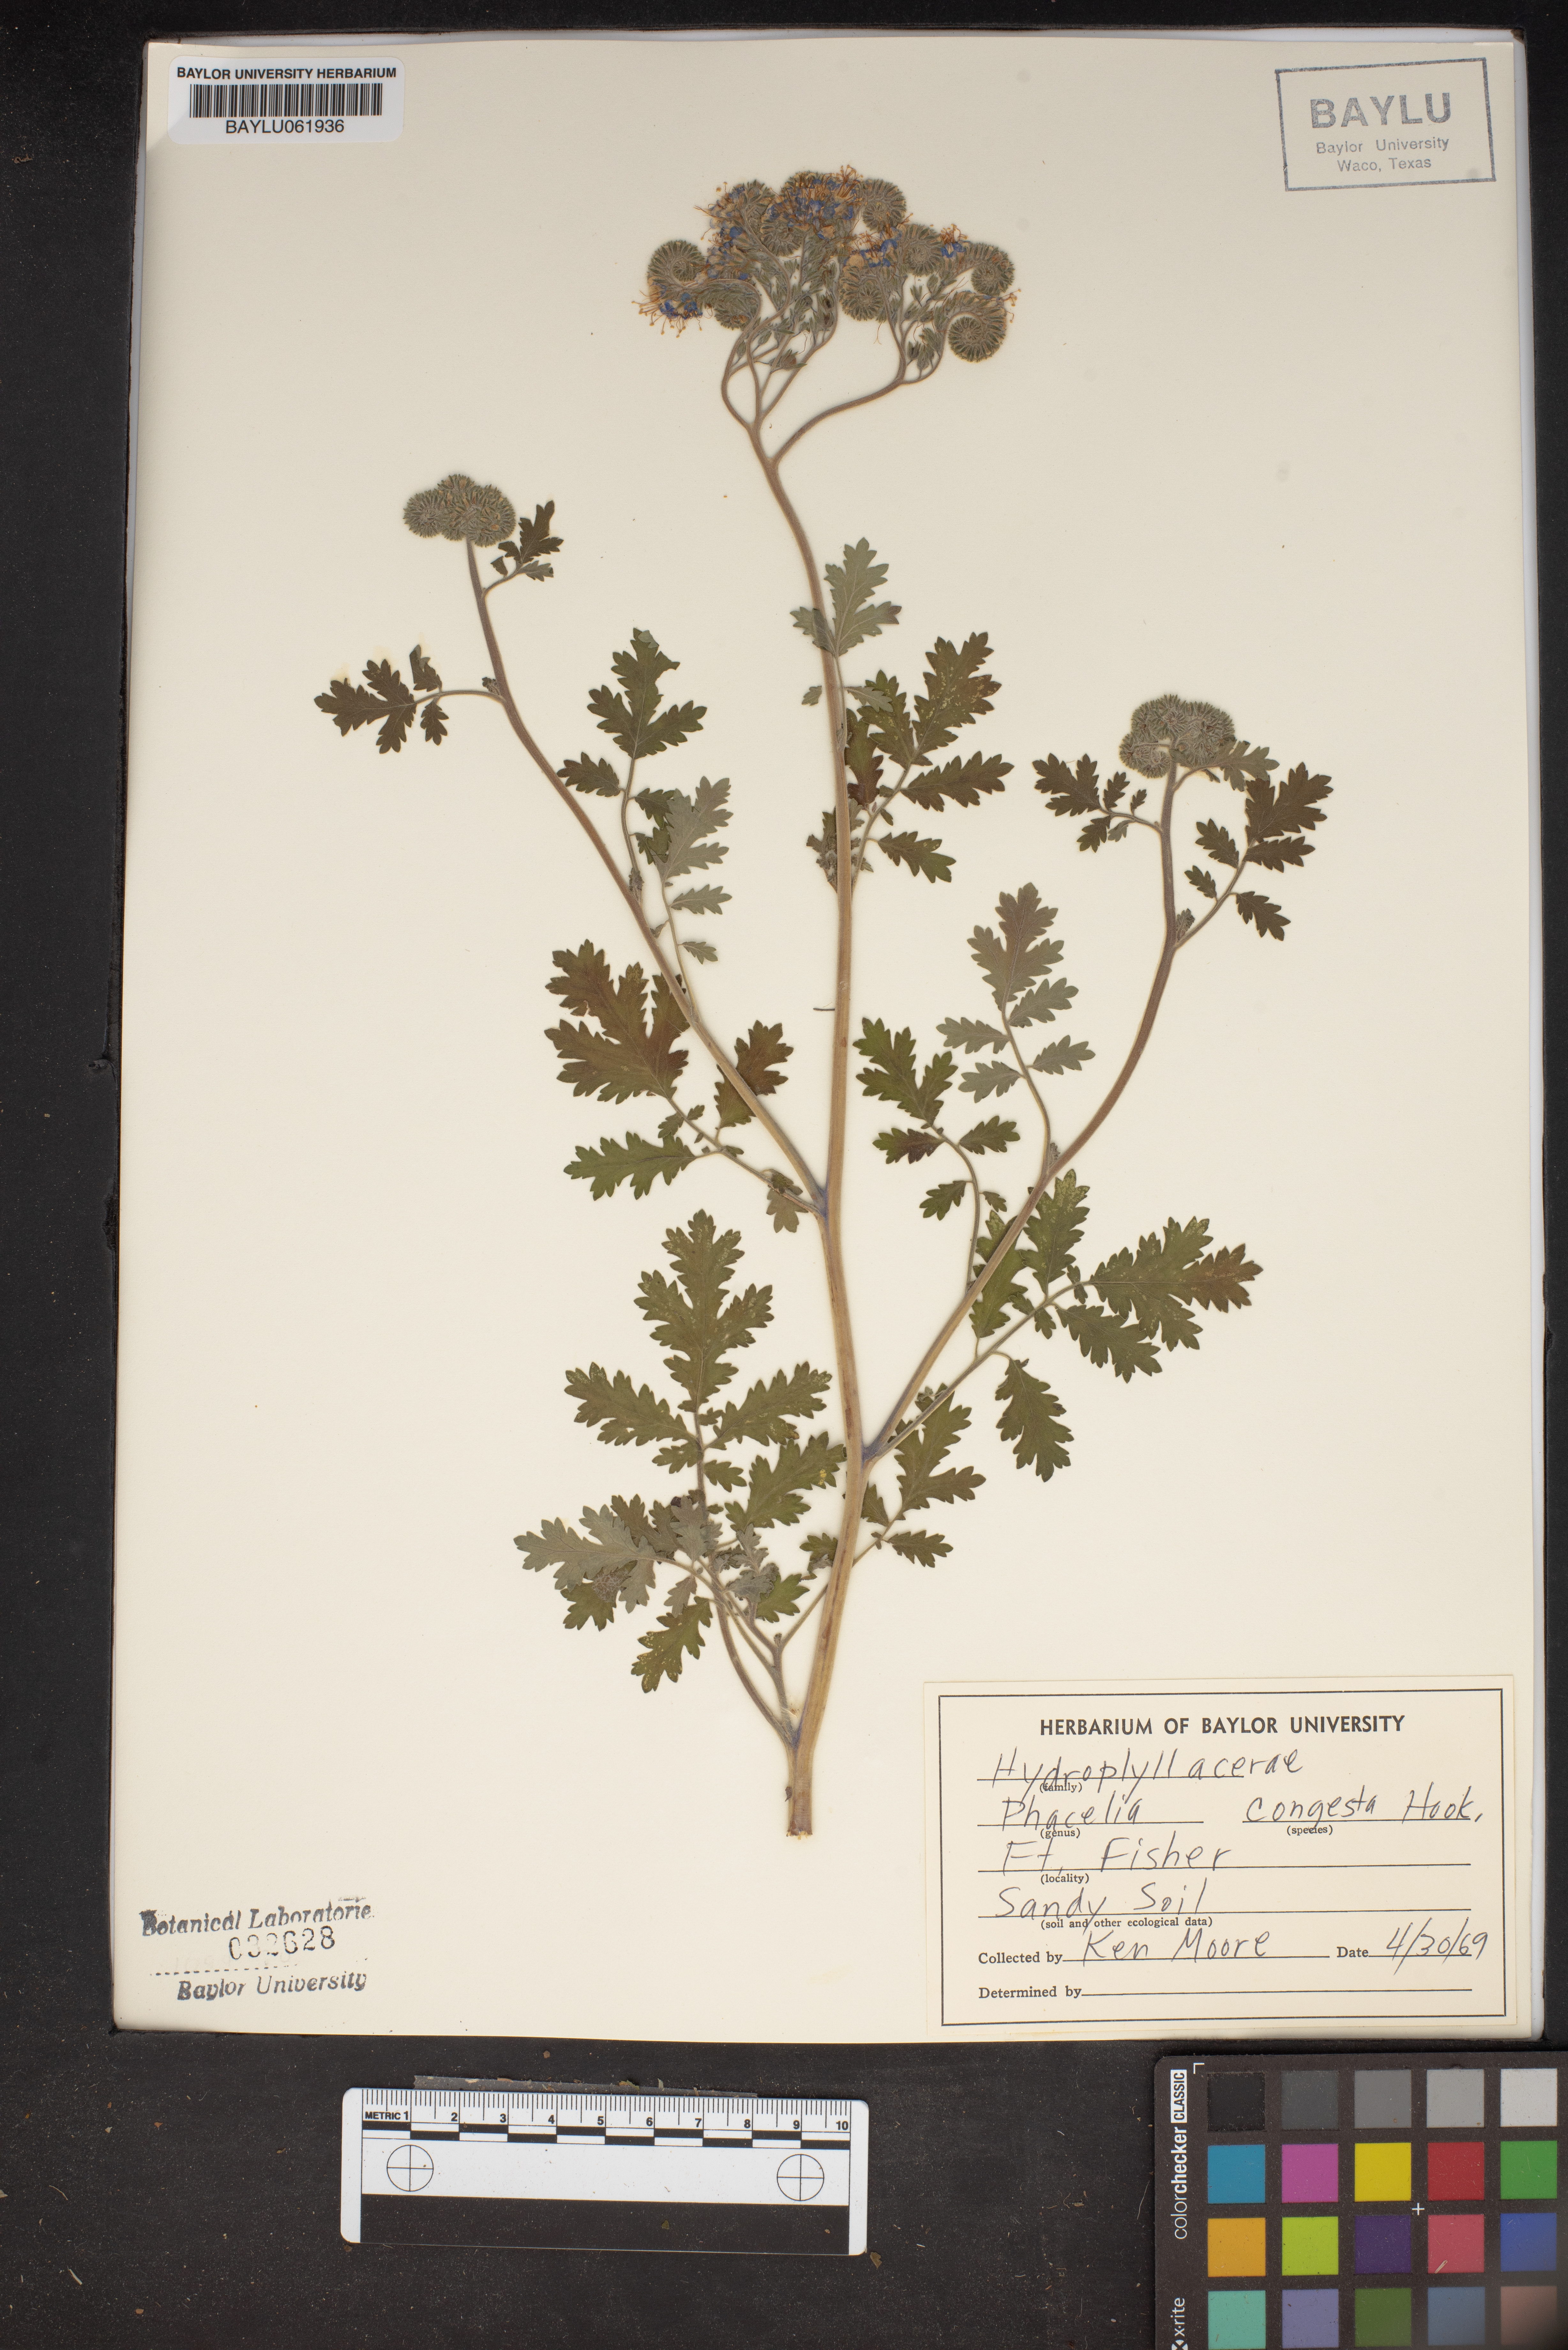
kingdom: Plantae
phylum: Tracheophyta
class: Magnoliopsida
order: Boraginales
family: Hydrophyllaceae
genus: Phacelia
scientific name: Phacelia congesta
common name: Blue curls
